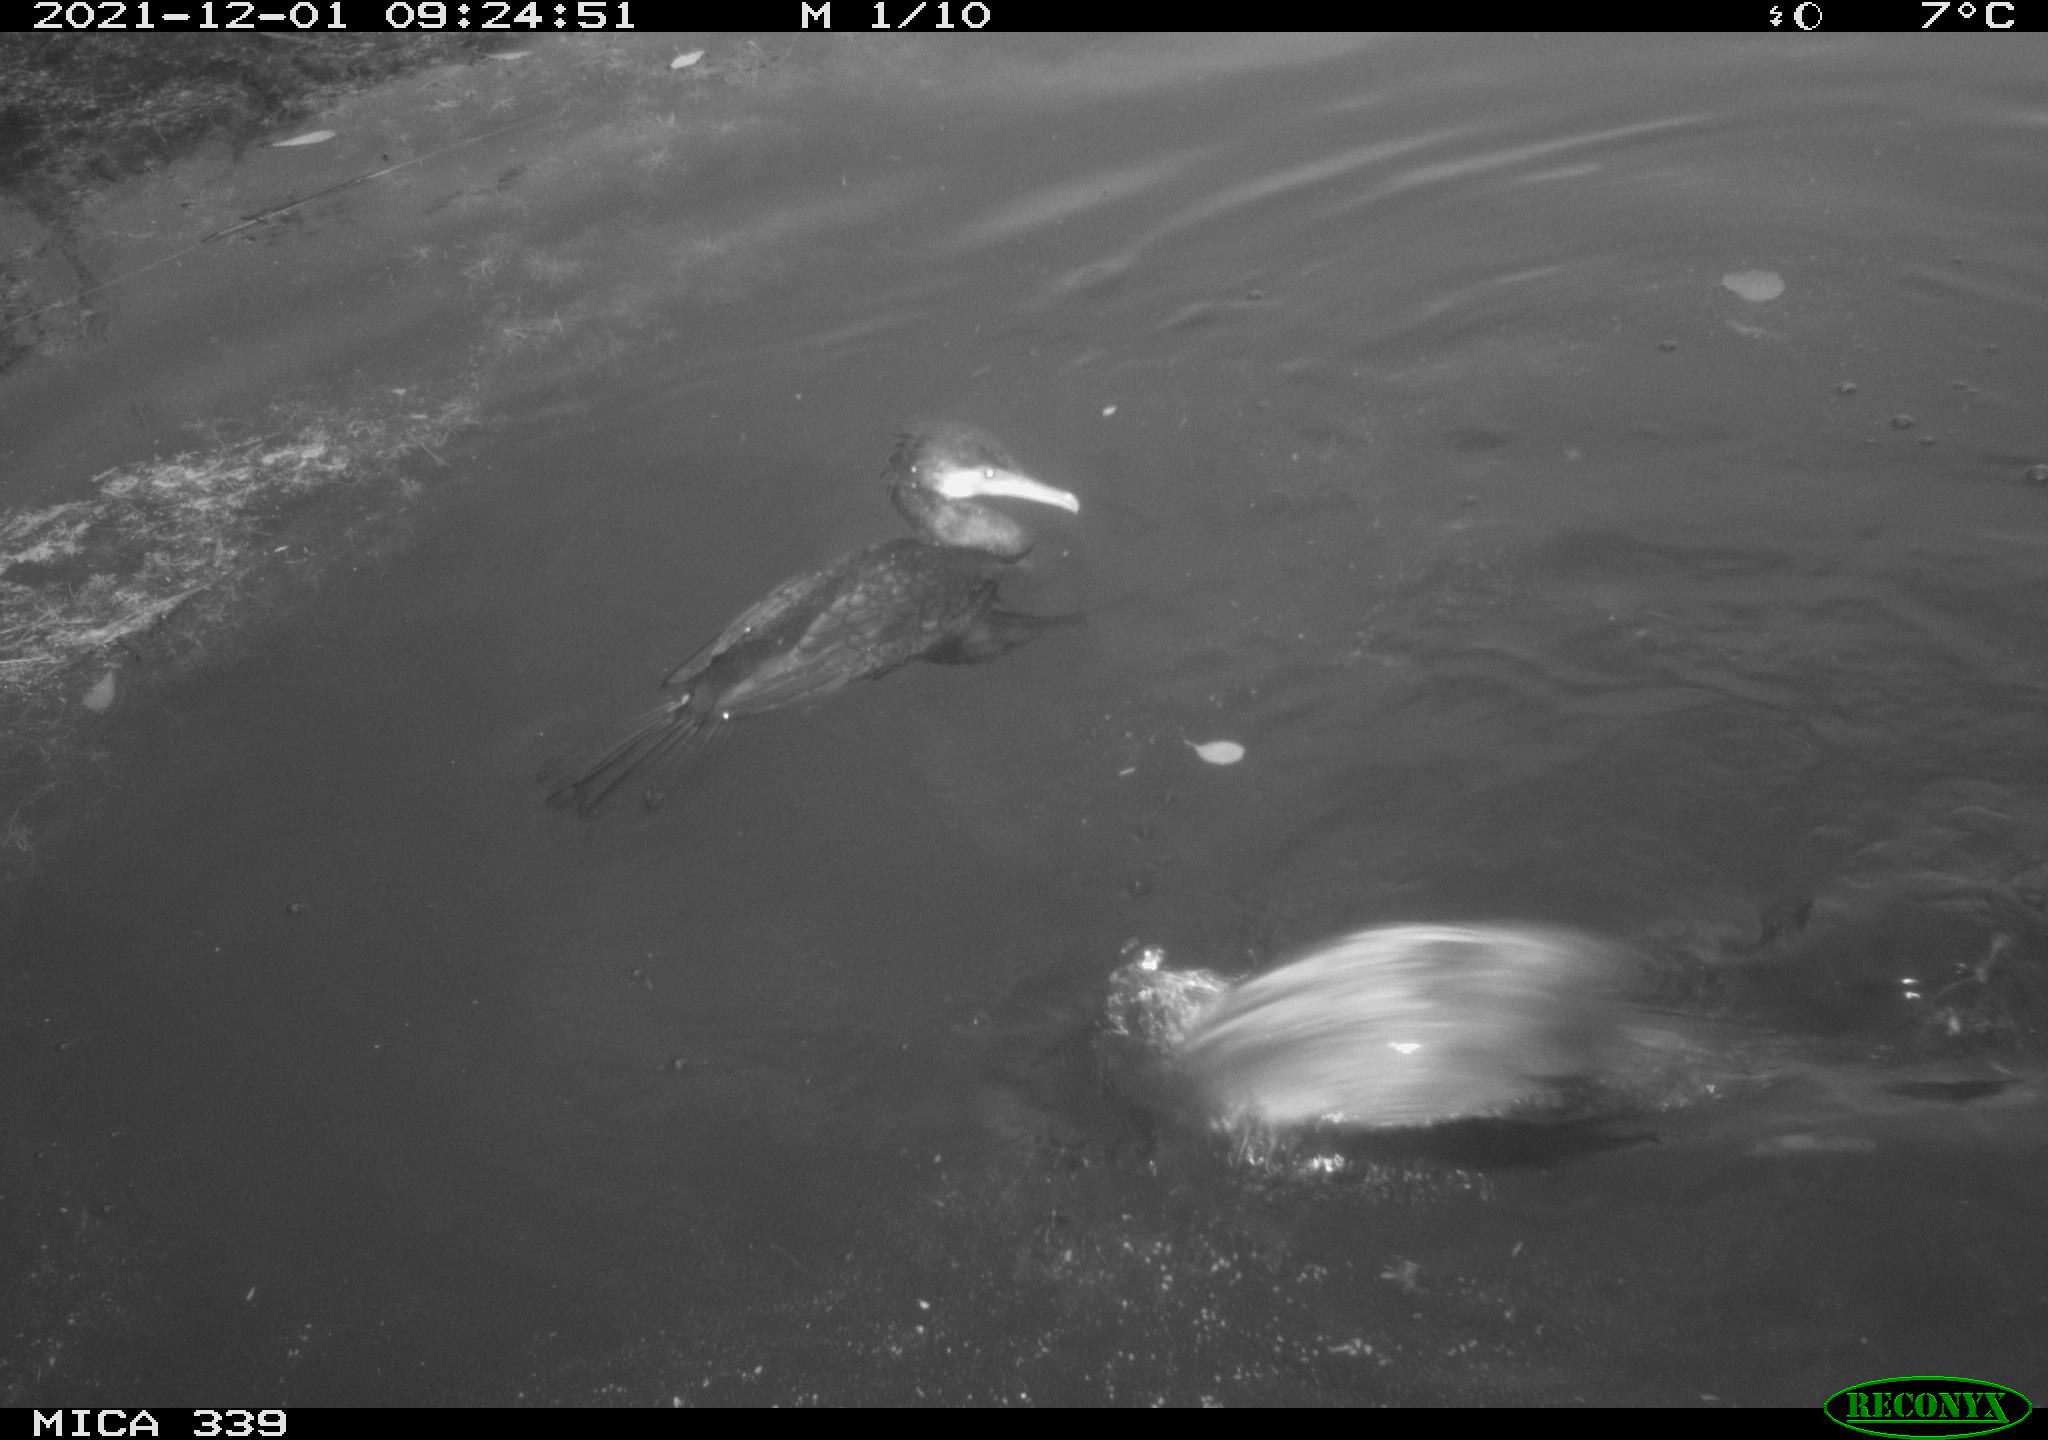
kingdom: Animalia
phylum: Chordata
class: Aves
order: Suliformes
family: Phalacrocoracidae
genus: Phalacrocorax
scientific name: Phalacrocorax carbo
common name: Great cormorant
